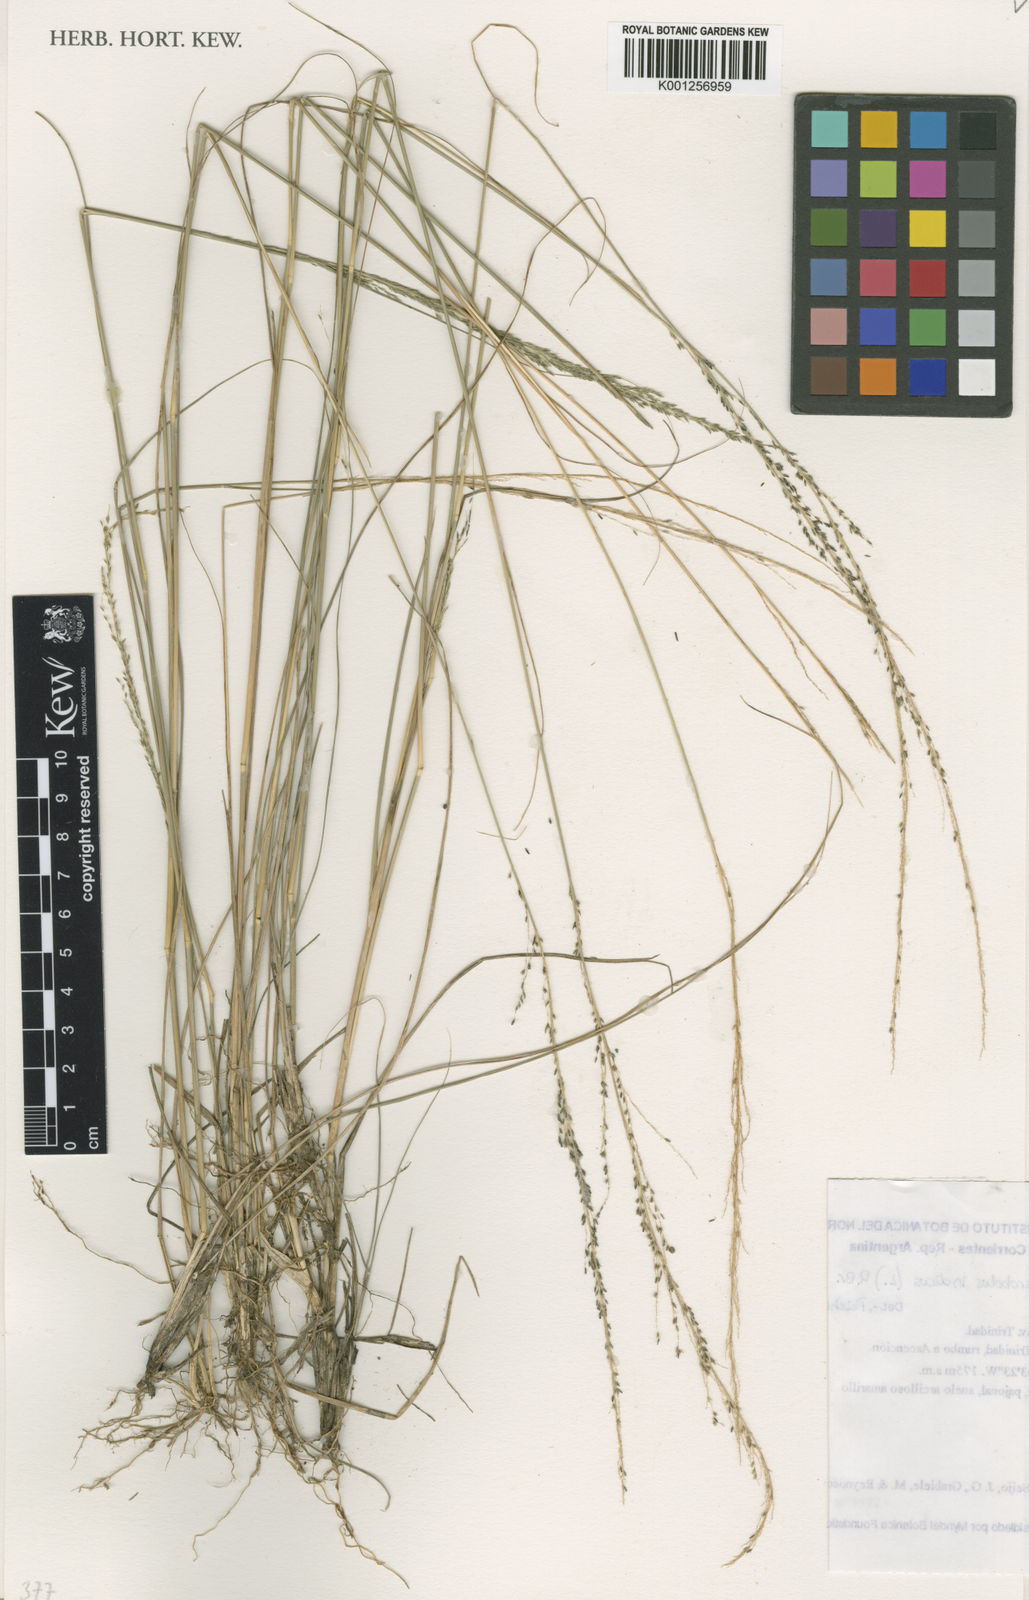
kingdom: Plantae
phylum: Tracheophyta
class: Liliopsida
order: Poales
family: Poaceae
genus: Sporobolus
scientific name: Sporobolus indicus
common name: Smut grass
